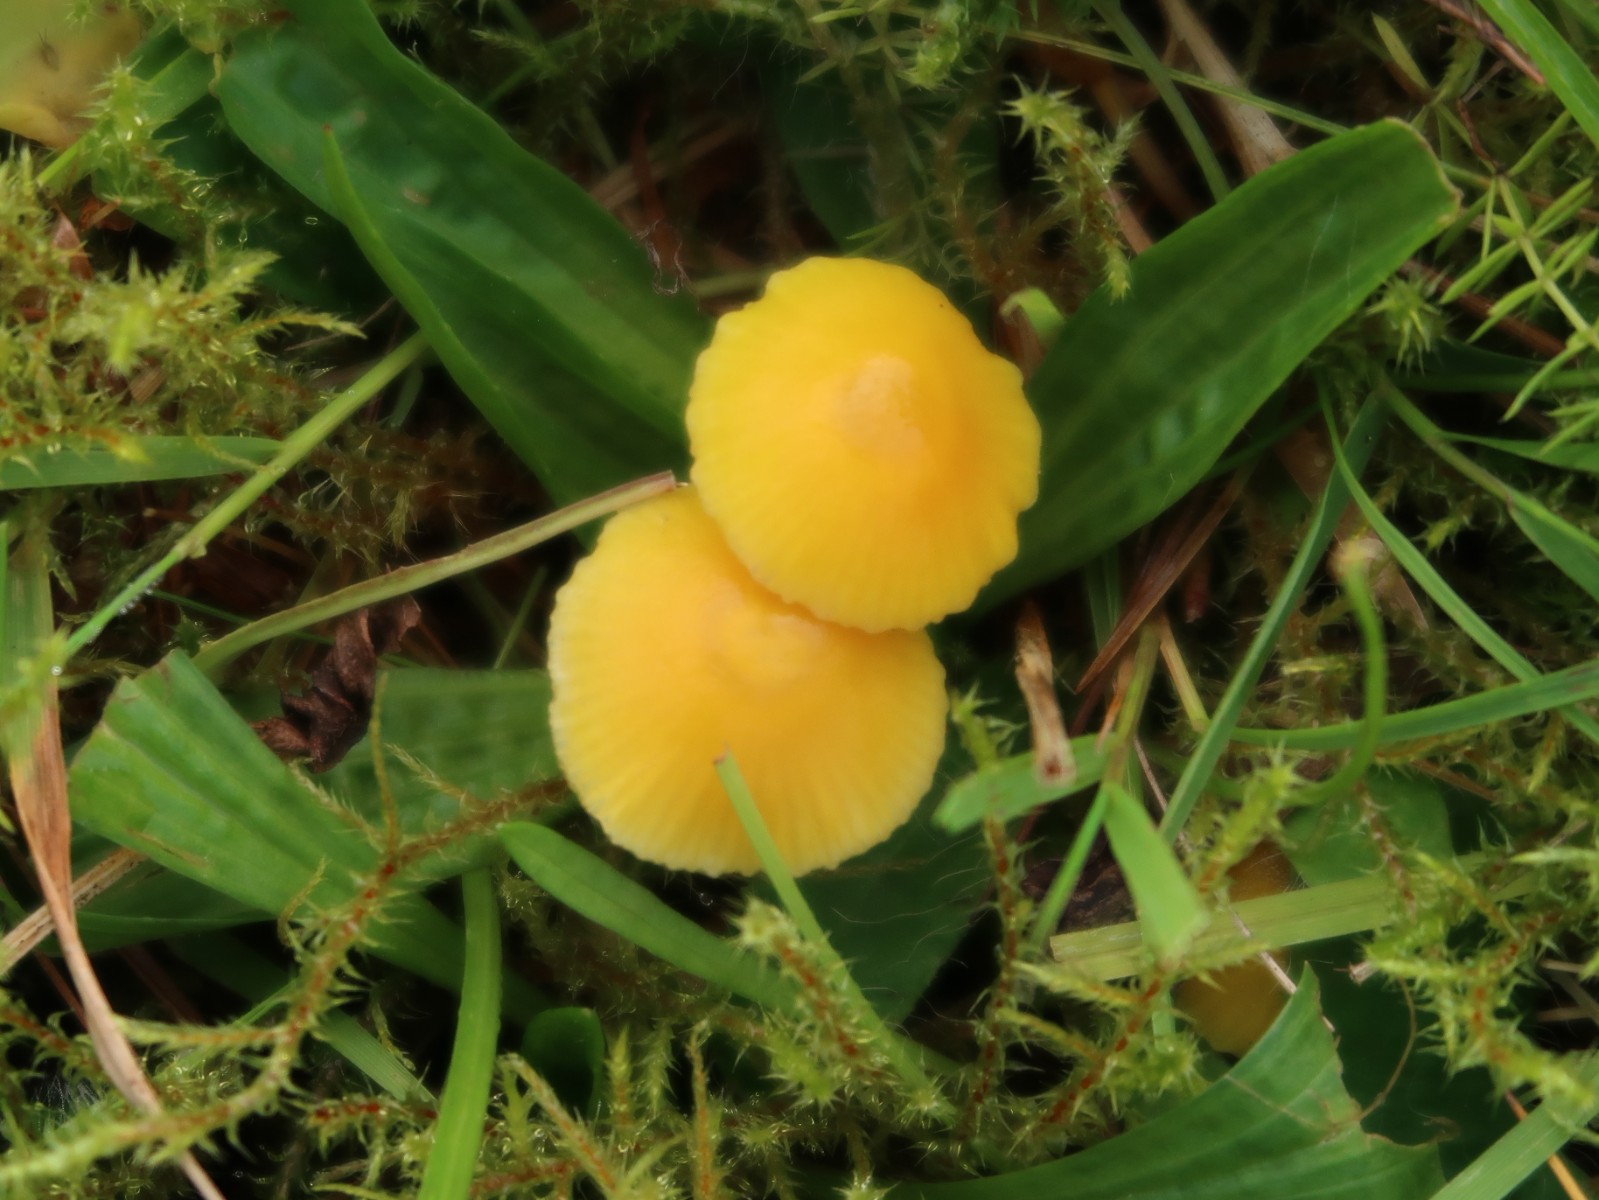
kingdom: Fungi
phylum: Basidiomycota
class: Agaricomycetes
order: Agaricales
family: Hygrophoraceae
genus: Hygrocybe
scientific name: Hygrocybe ceracea
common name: voksgul vokshat
